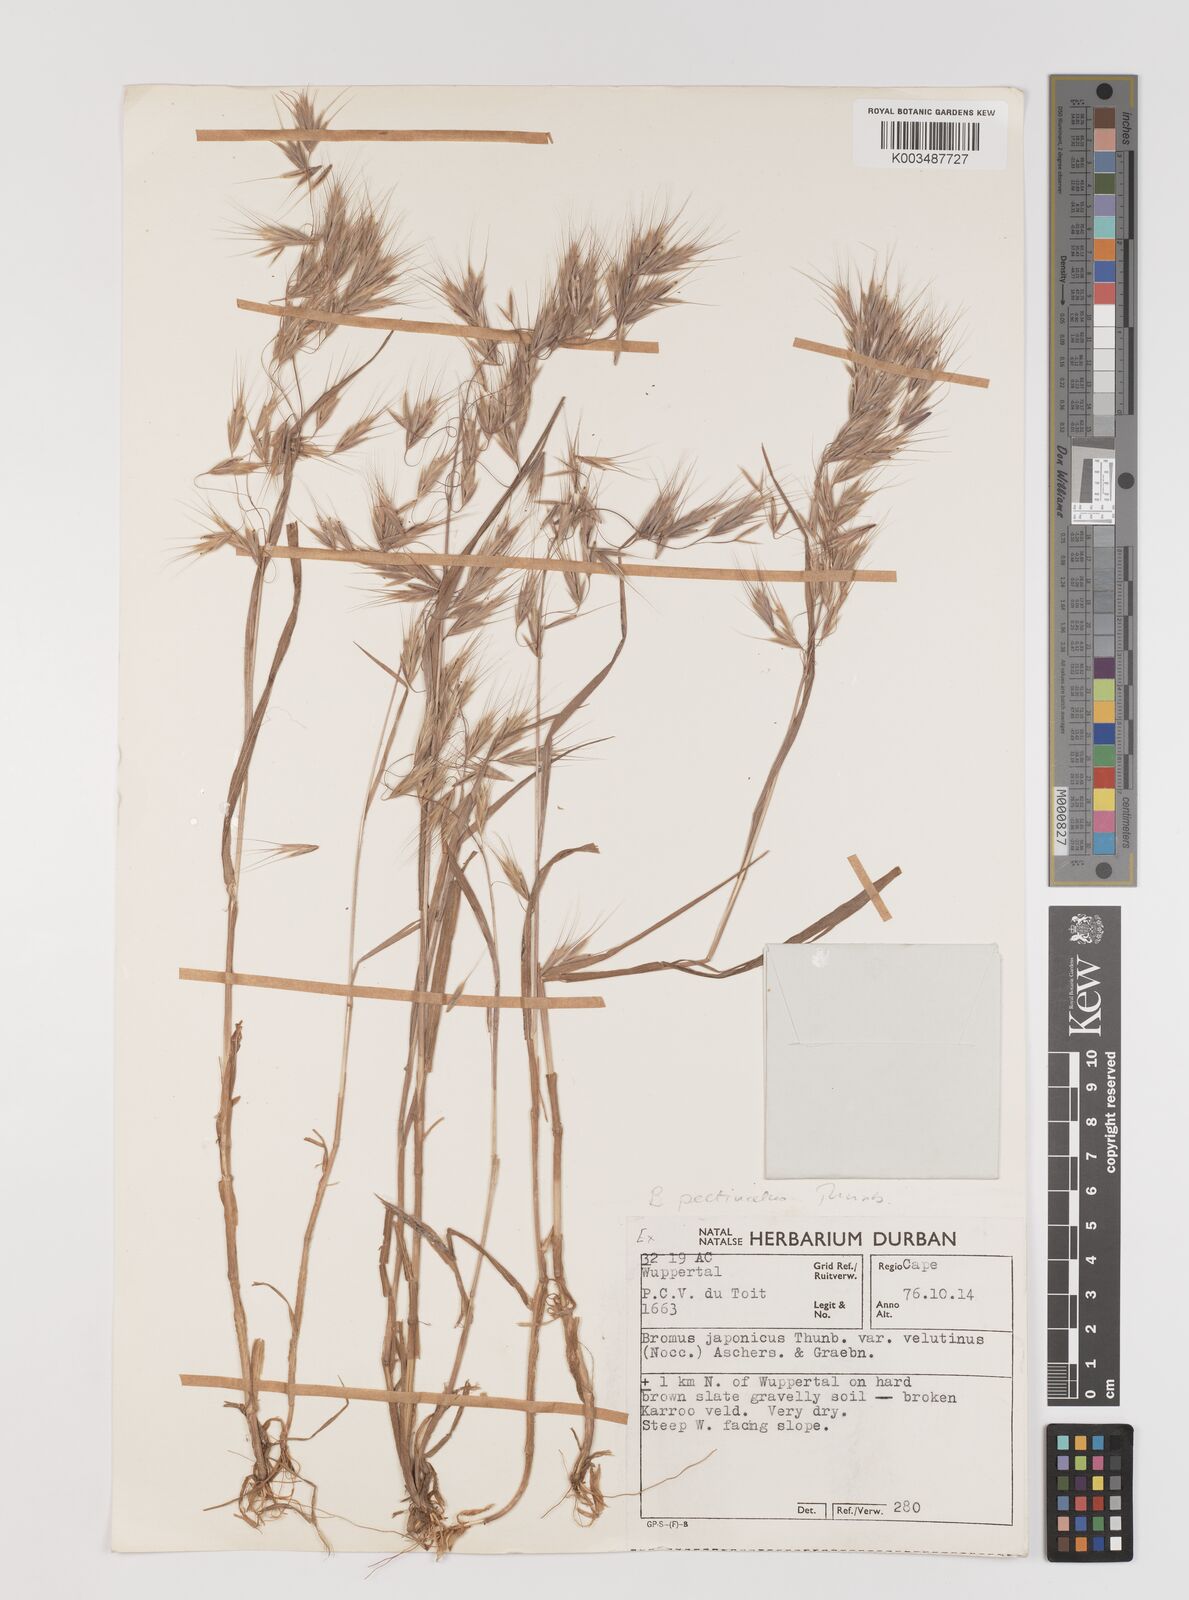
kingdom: Plantae
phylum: Tracheophyta
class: Liliopsida
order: Poales
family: Poaceae
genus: Bromus
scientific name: Bromus pectinatus
